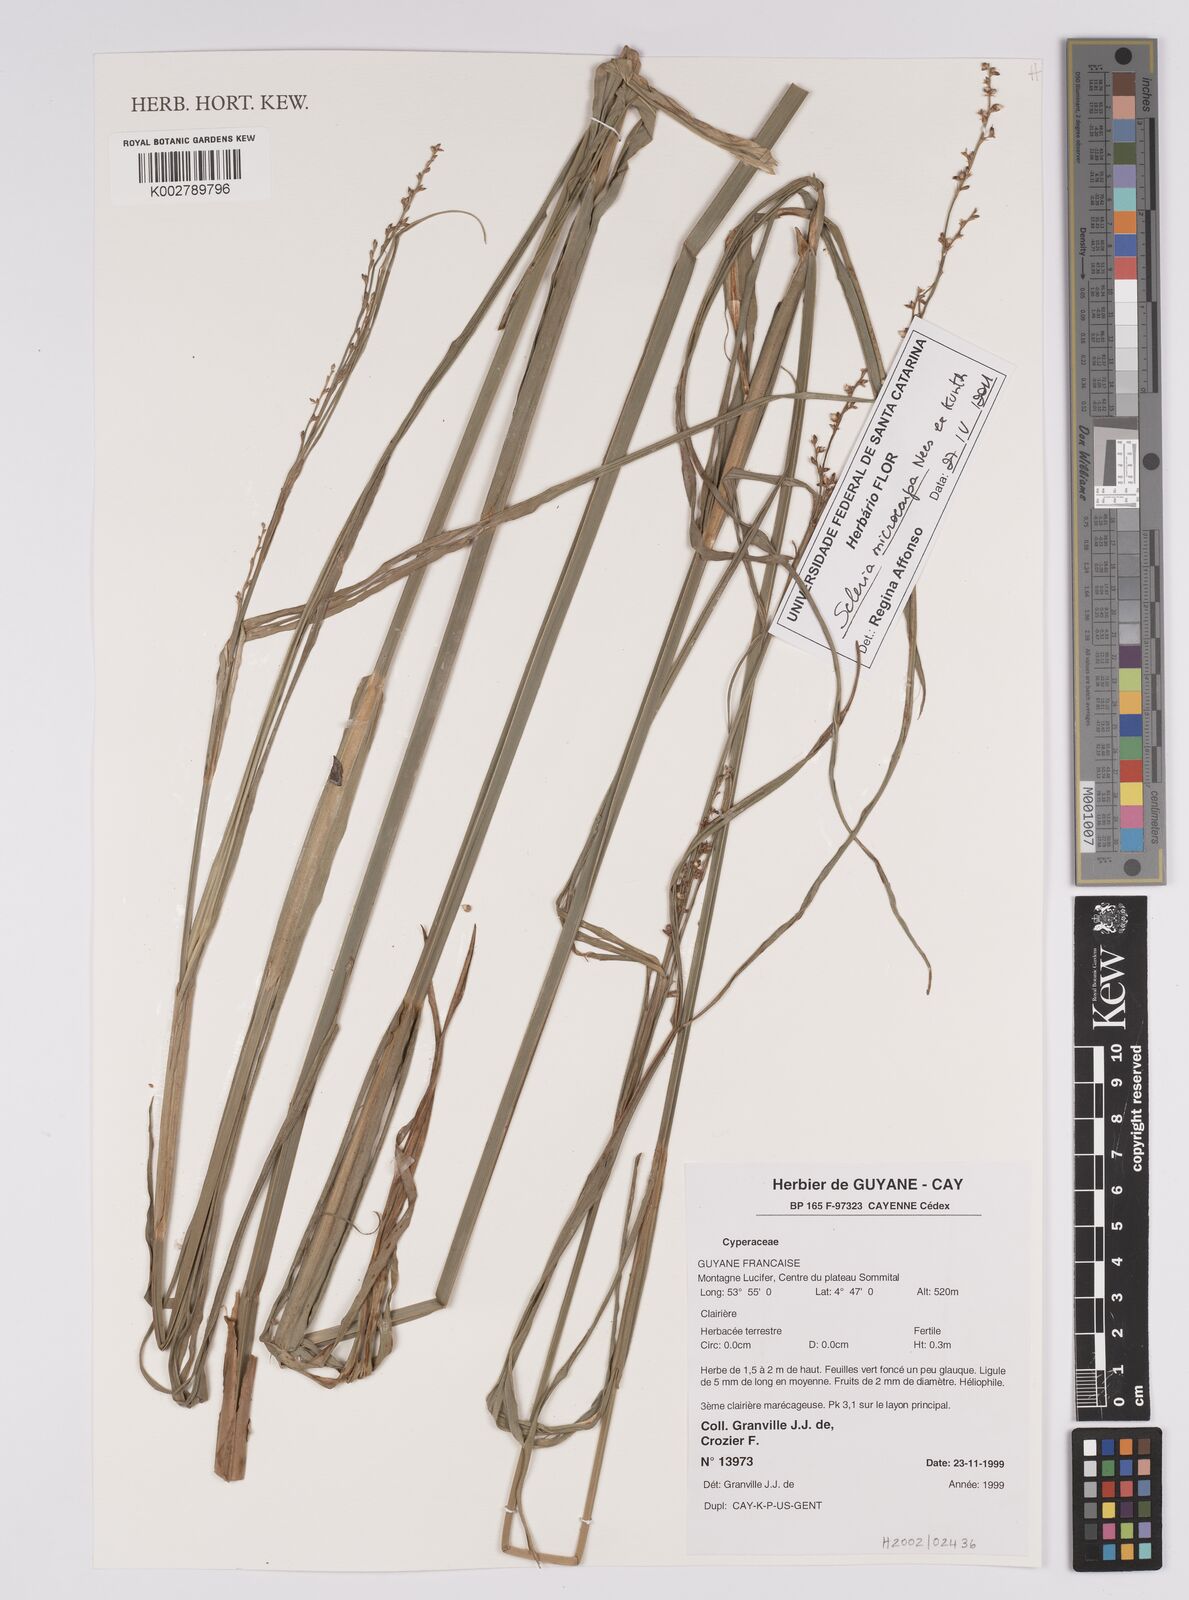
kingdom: Plantae
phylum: Tracheophyta
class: Liliopsida
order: Poales
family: Cyperaceae
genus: Scleria
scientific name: Scleria
